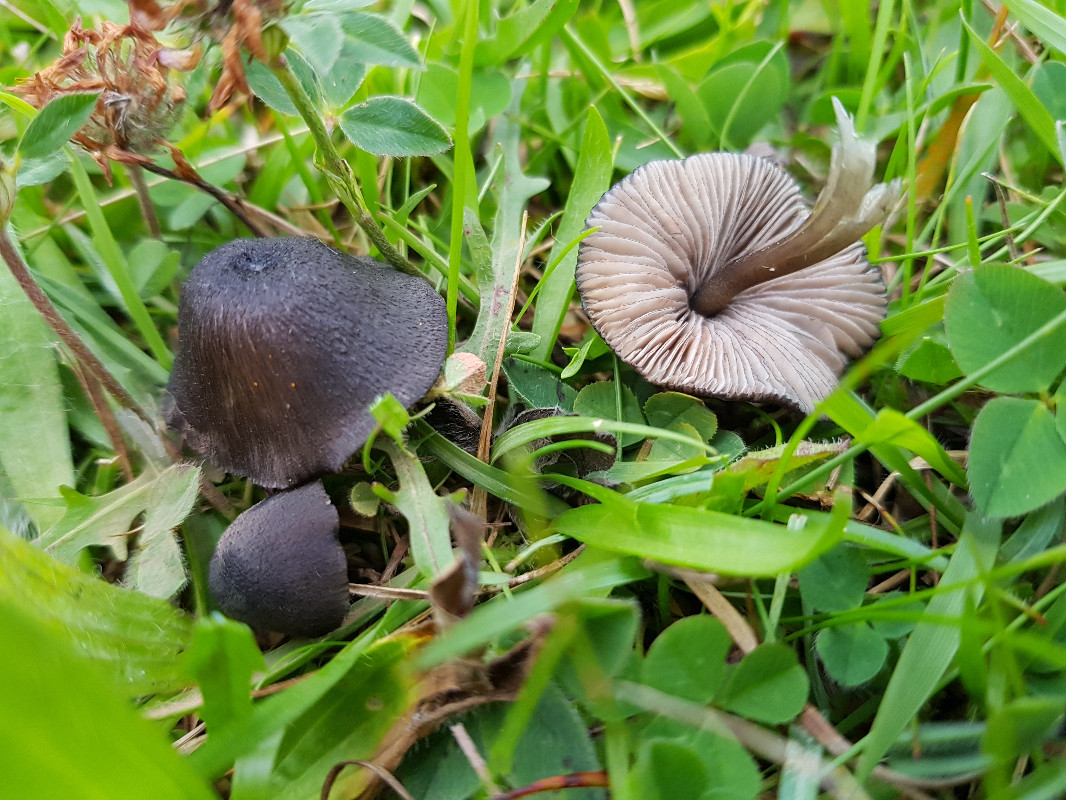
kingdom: Fungi
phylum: Basidiomycota
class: Agaricomycetes
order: Agaricales
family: Entolomataceae
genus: Entoloma
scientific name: Entoloma
